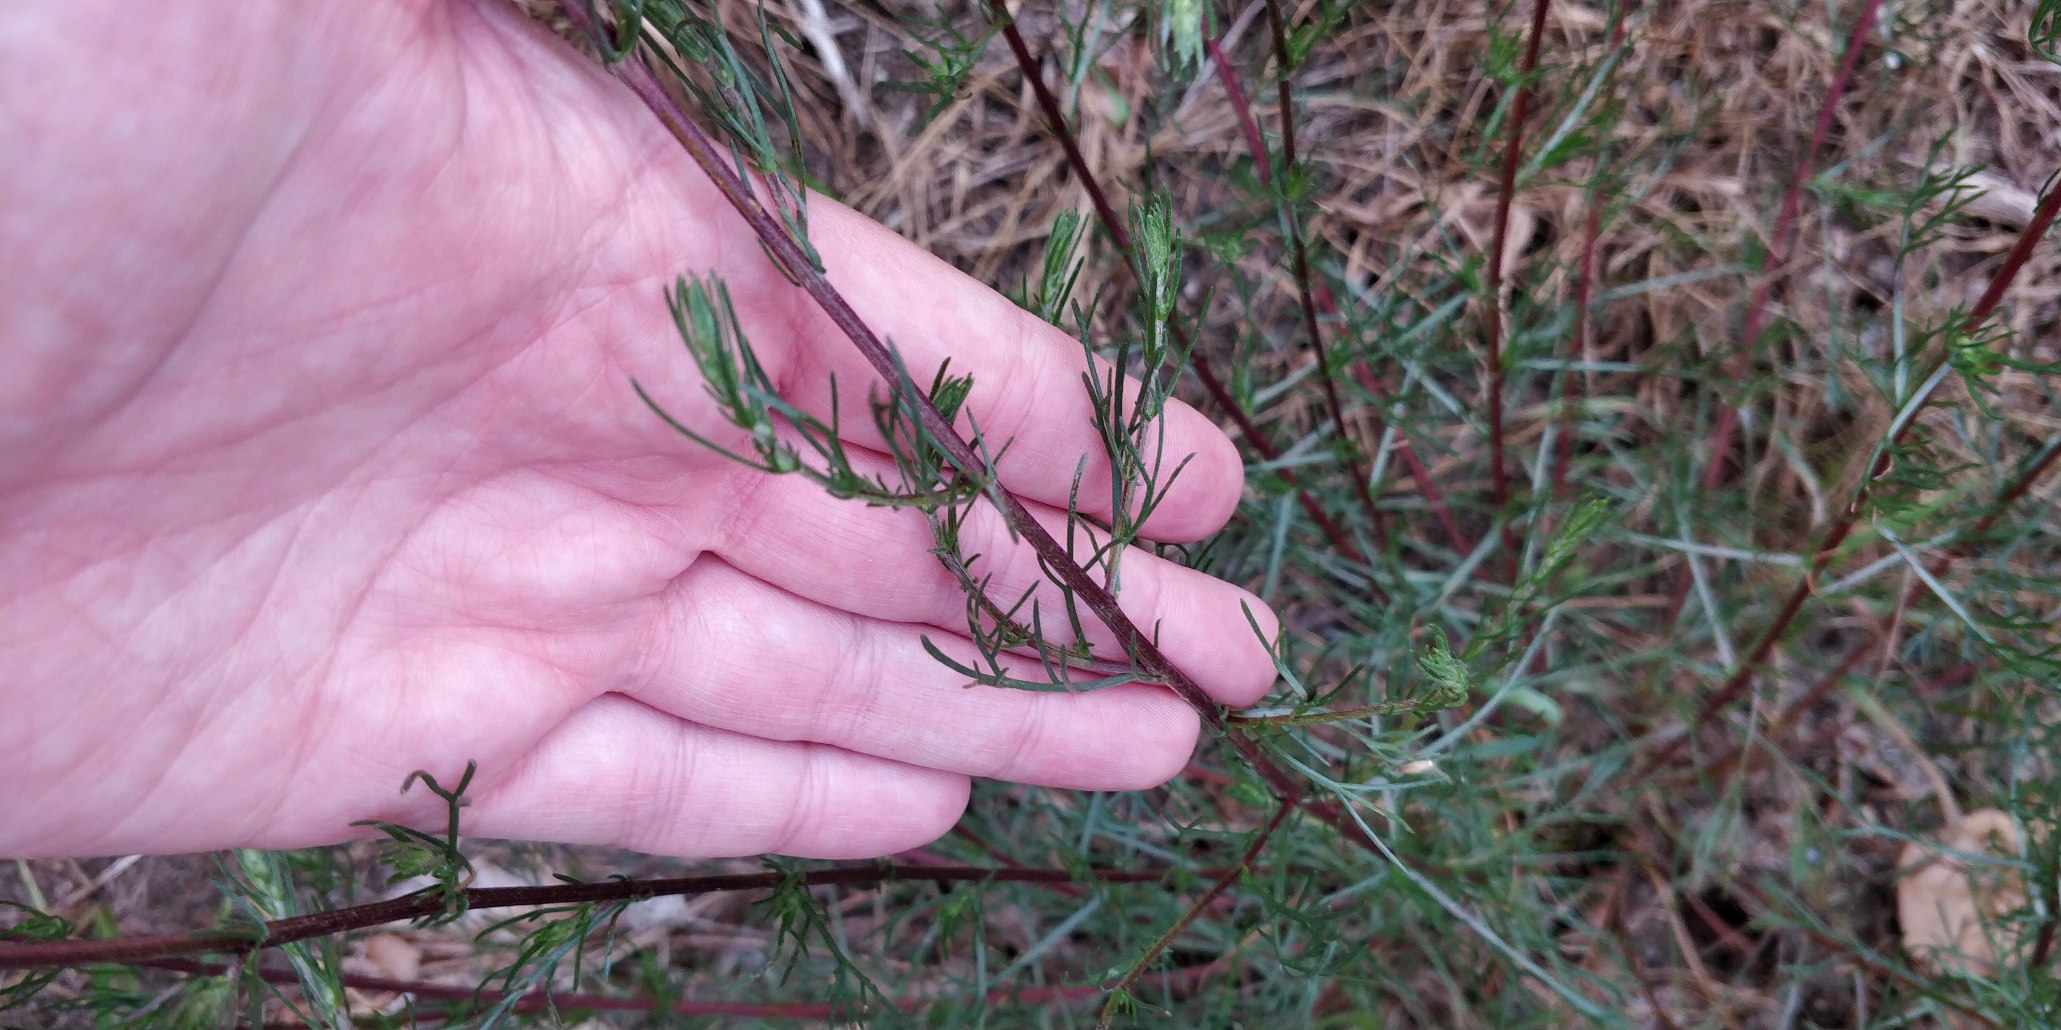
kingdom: Plantae
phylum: Tracheophyta
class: Magnoliopsida
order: Asterales
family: Asteraceae
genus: Artemisia
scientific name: Artemisia campestris
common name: Mark-bynke
